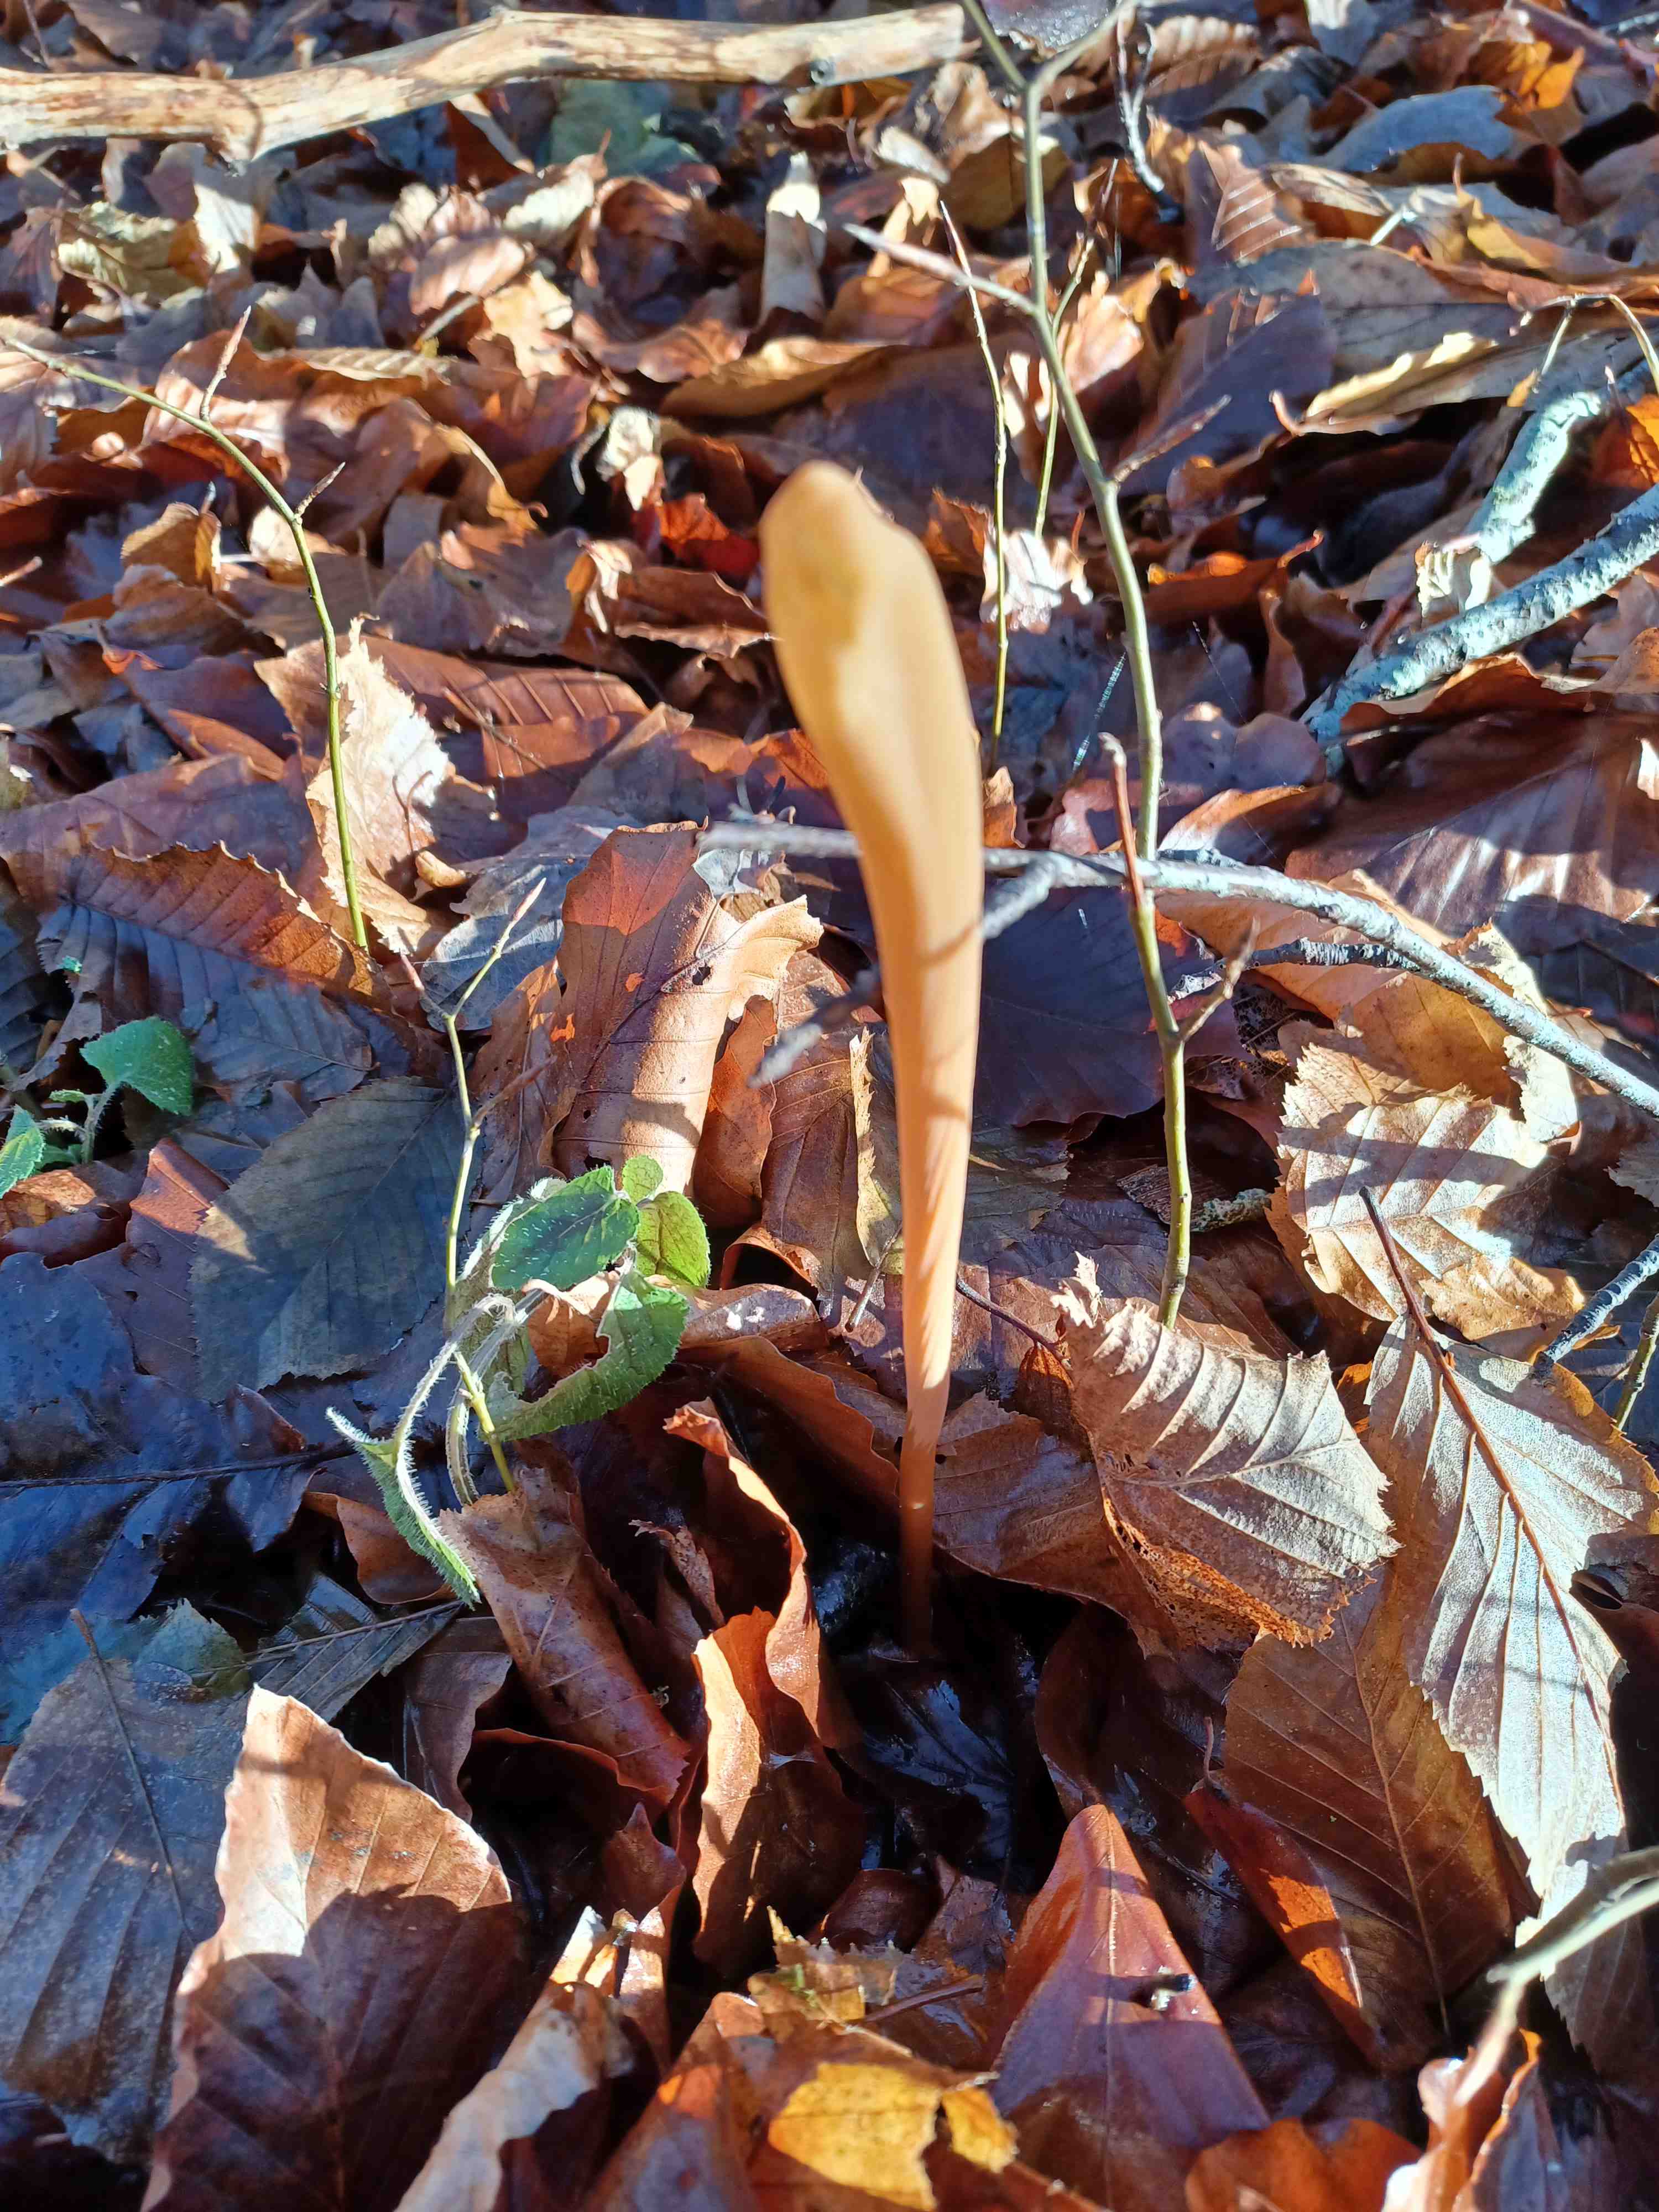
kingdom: Fungi
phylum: Basidiomycota
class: Agaricomycetes
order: Agaricales
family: Typhulaceae
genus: Typhula
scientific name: Typhula fistulosa
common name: pibet rørkølle
